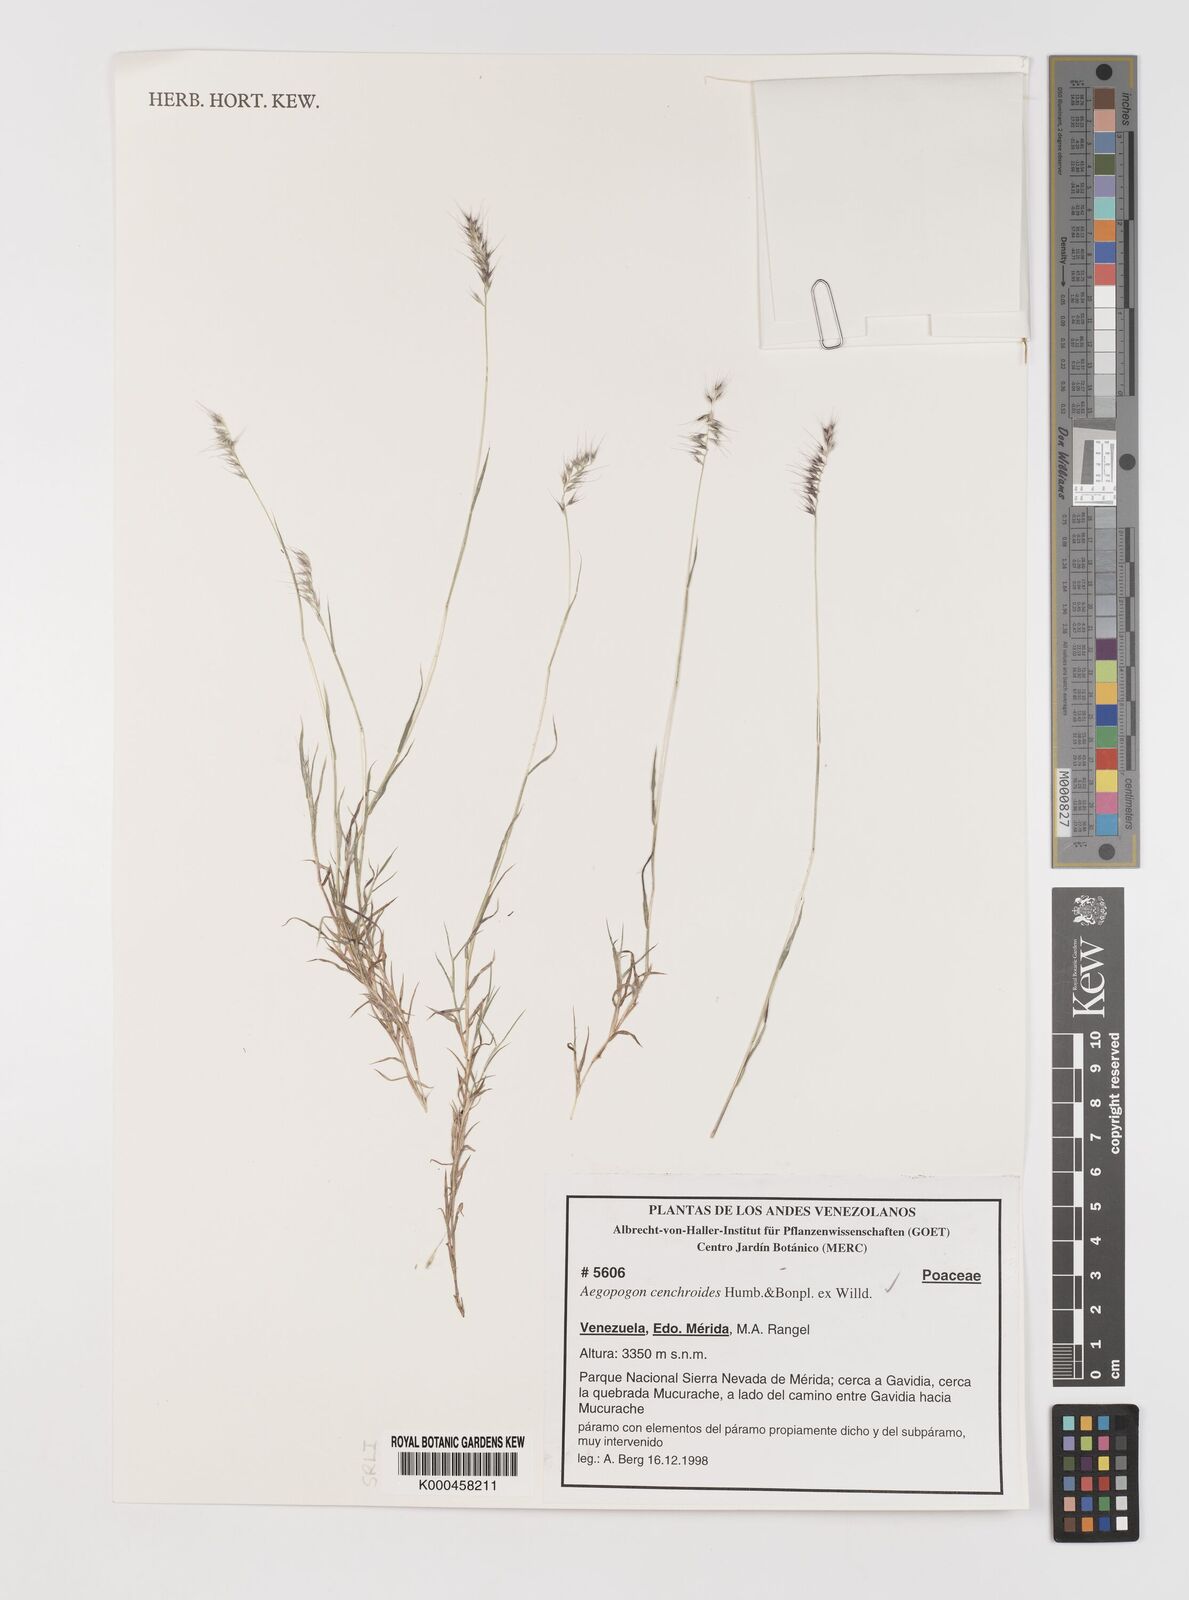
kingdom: Plantae
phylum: Tracheophyta
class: Liliopsida
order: Poales
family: Poaceae
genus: Muhlenbergia
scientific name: Muhlenbergia
